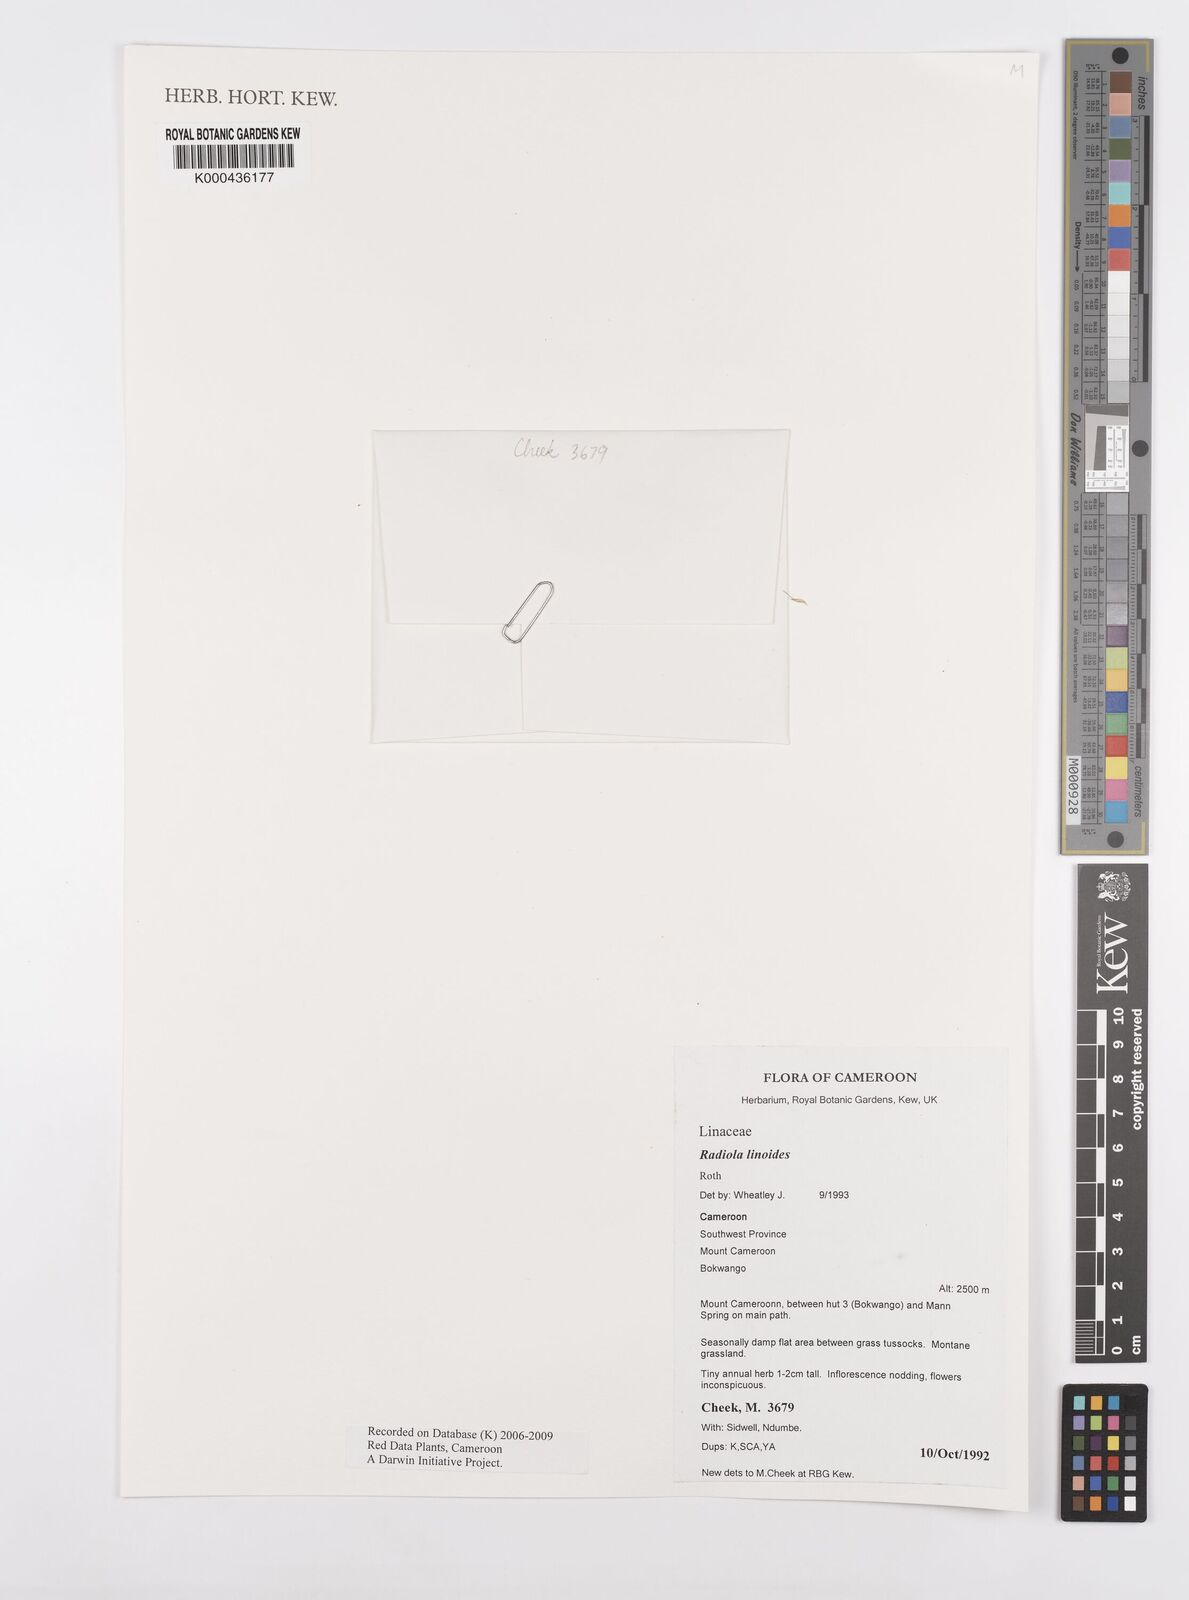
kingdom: Plantae
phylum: Tracheophyta
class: Magnoliopsida
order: Malpighiales
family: Linaceae
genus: Radiola
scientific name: Radiola linoides
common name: Allseed
